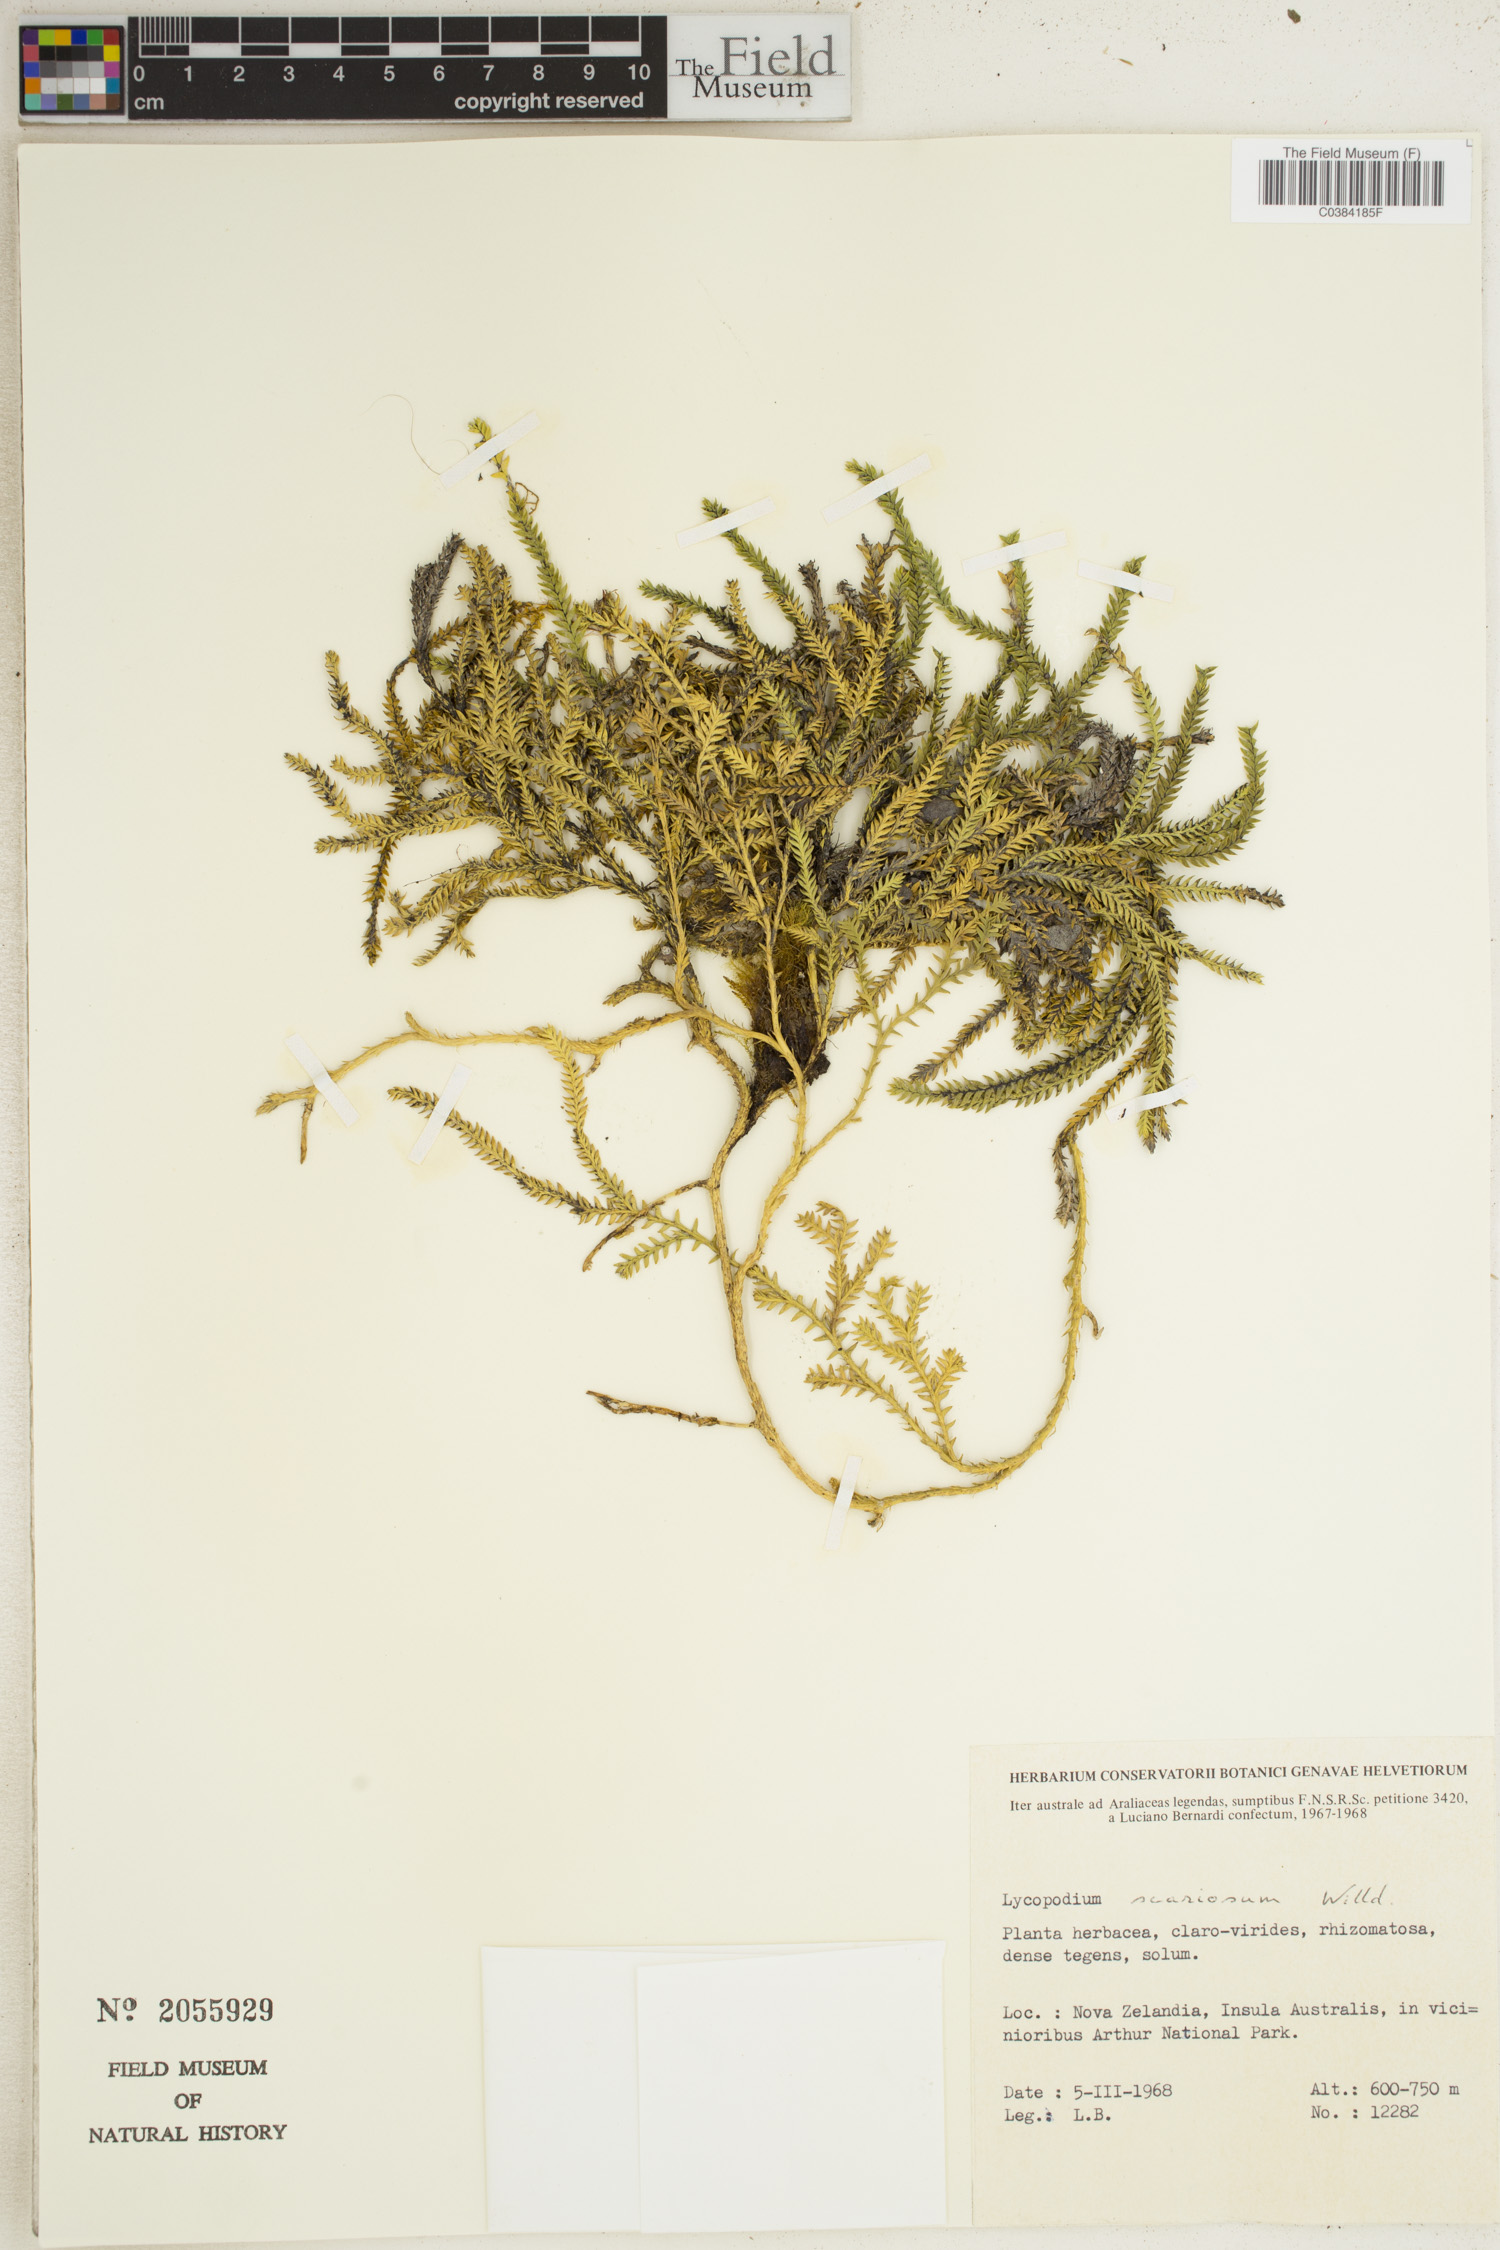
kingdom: Plantae
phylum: Tracheophyta
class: Lycopodiopsida
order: Lycopodiales
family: Lycopodiaceae
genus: Diphasium
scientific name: Diphasium scariosum
